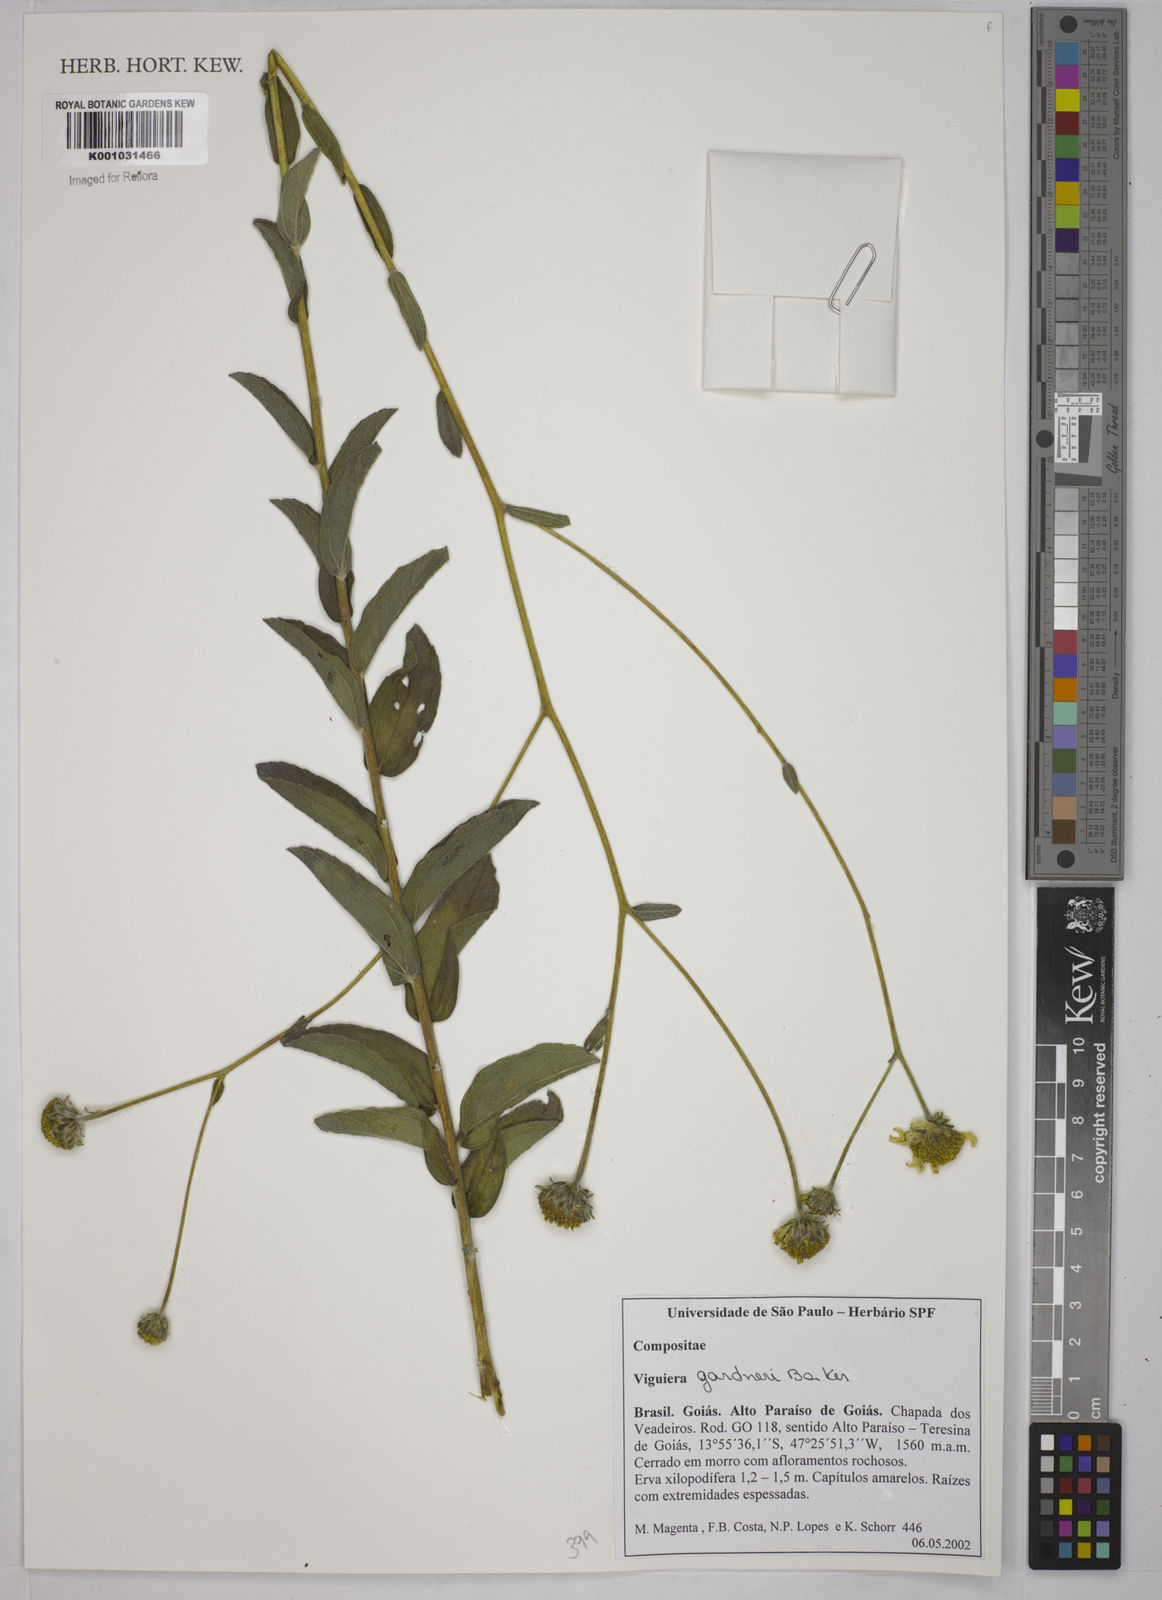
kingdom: Plantae
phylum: Tracheophyta
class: Magnoliopsida
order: Asterales
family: Asteraceae
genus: Aldama
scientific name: Aldama gardneri
